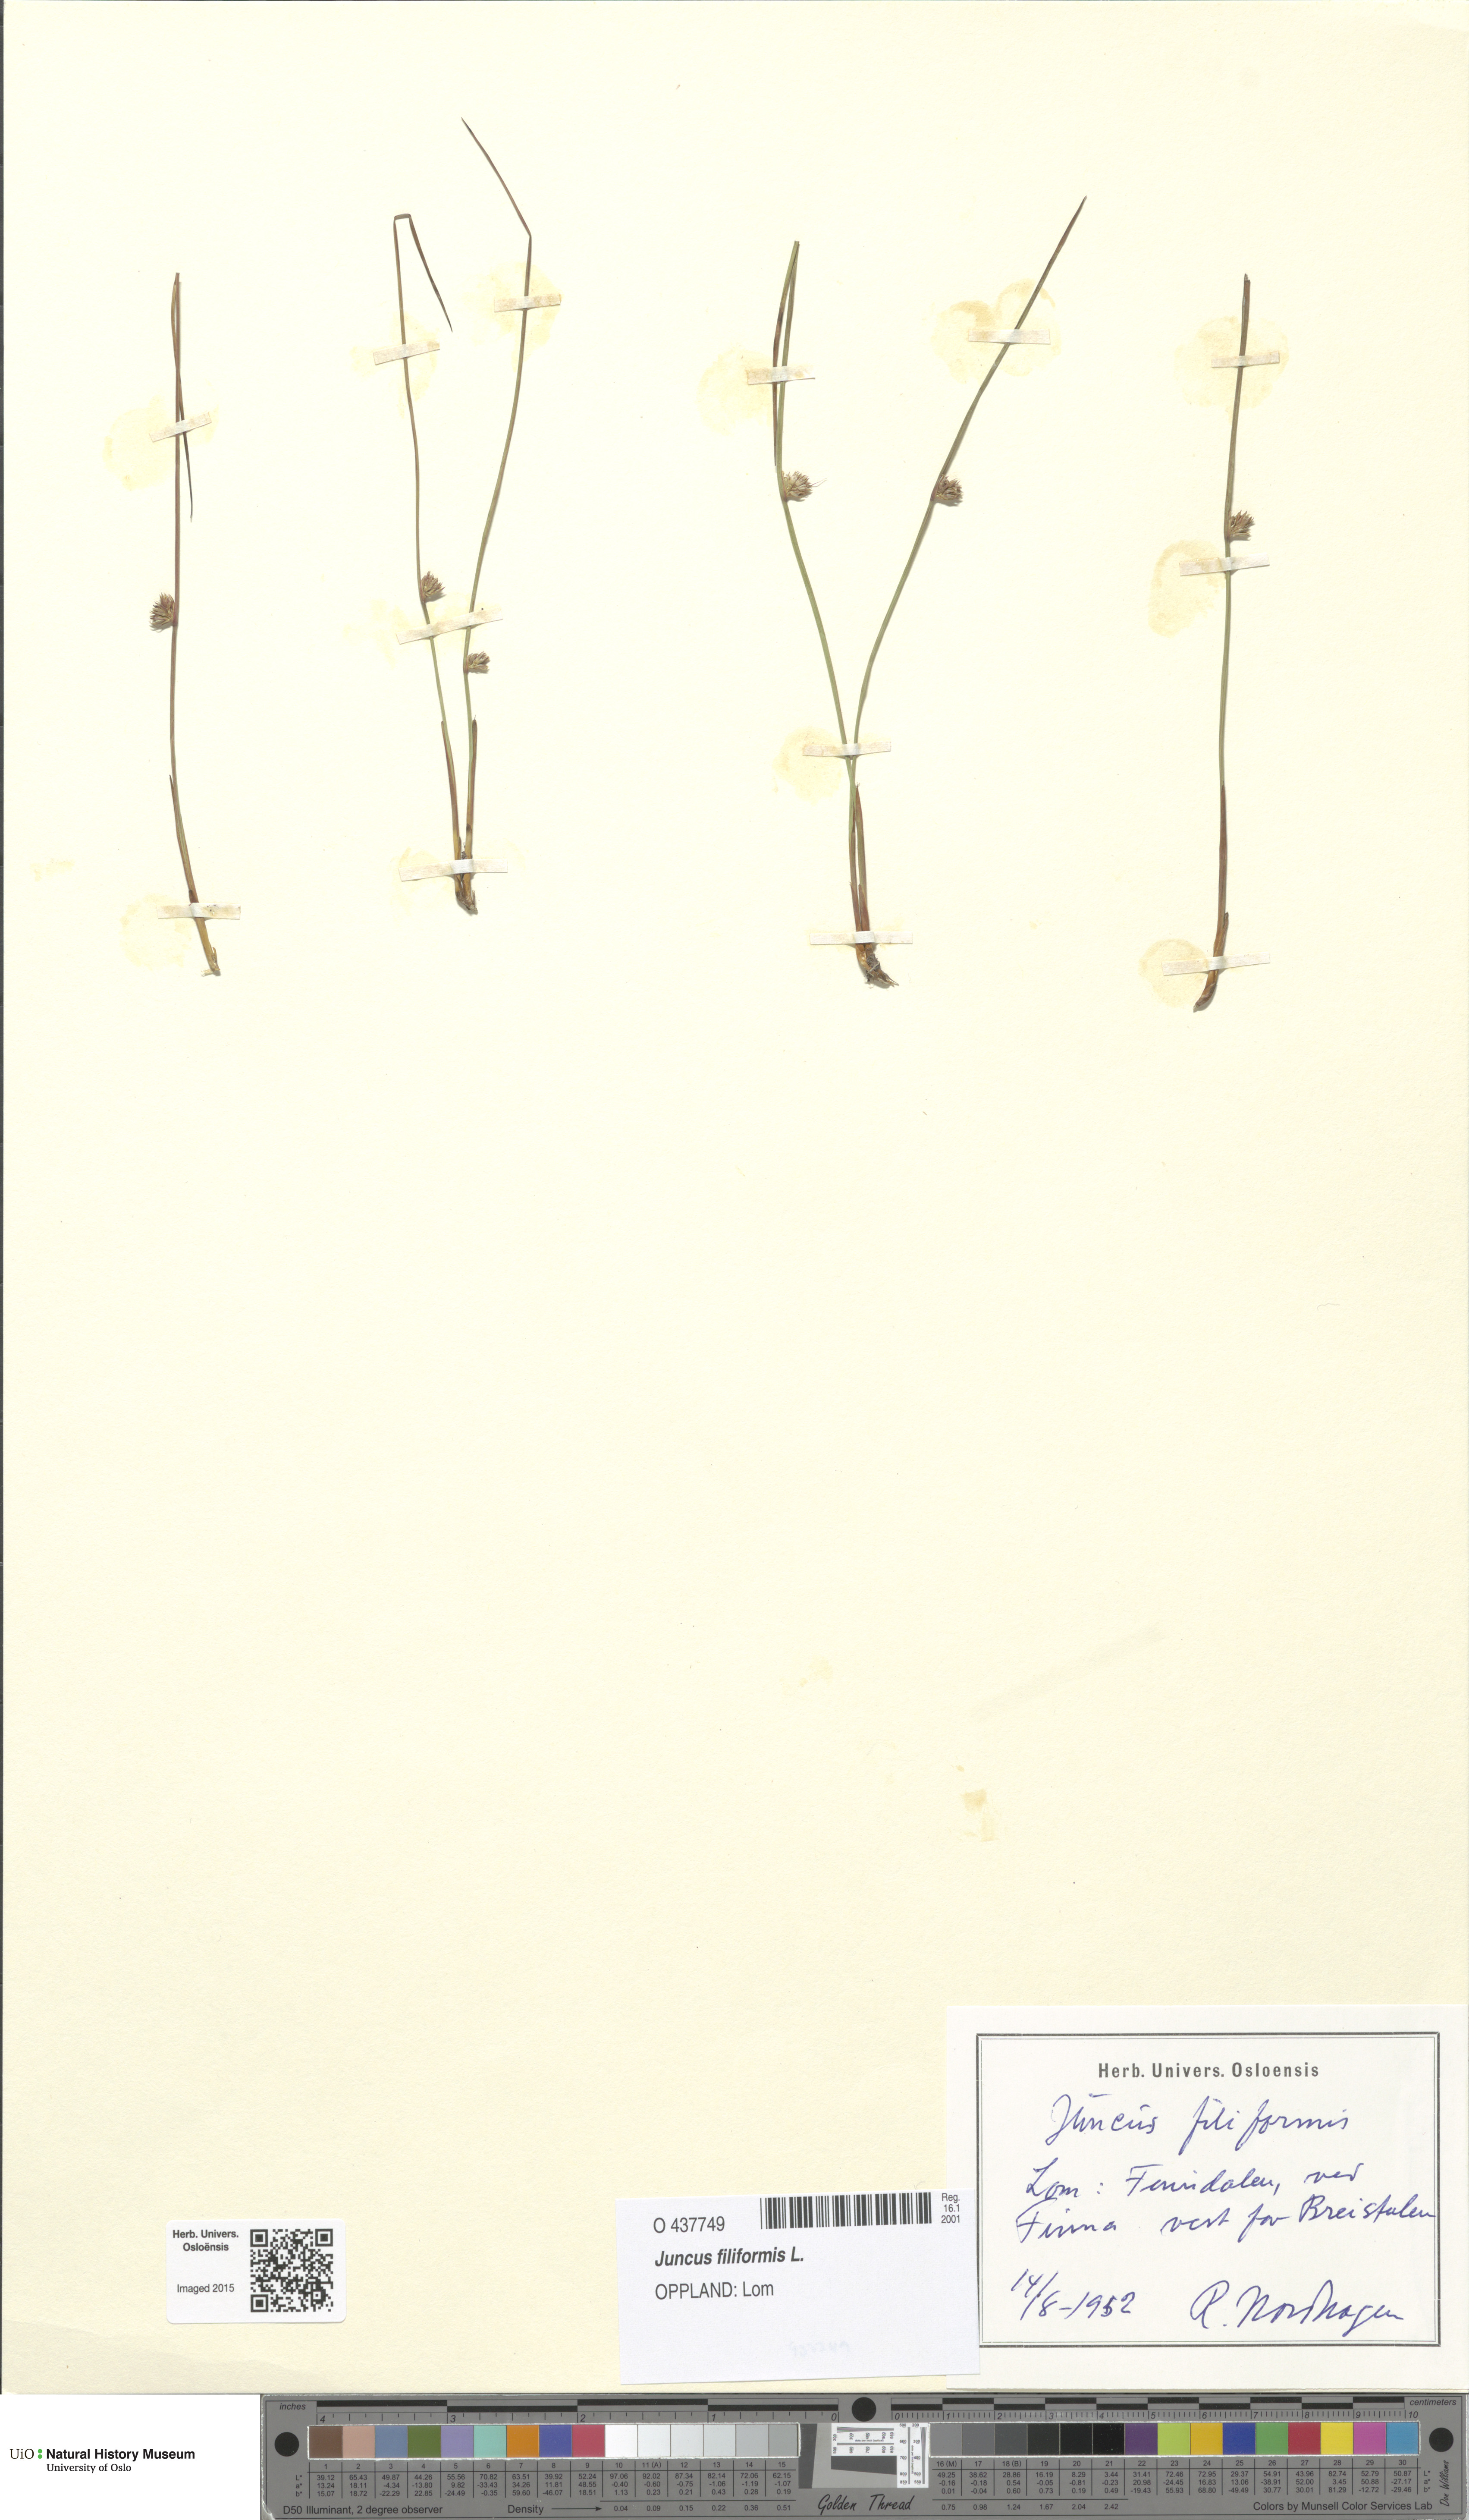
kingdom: Plantae
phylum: Tracheophyta
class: Liliopsida
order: Poales
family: Juncaceae
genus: Juncus
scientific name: Juncus filiformis
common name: Thread rush
